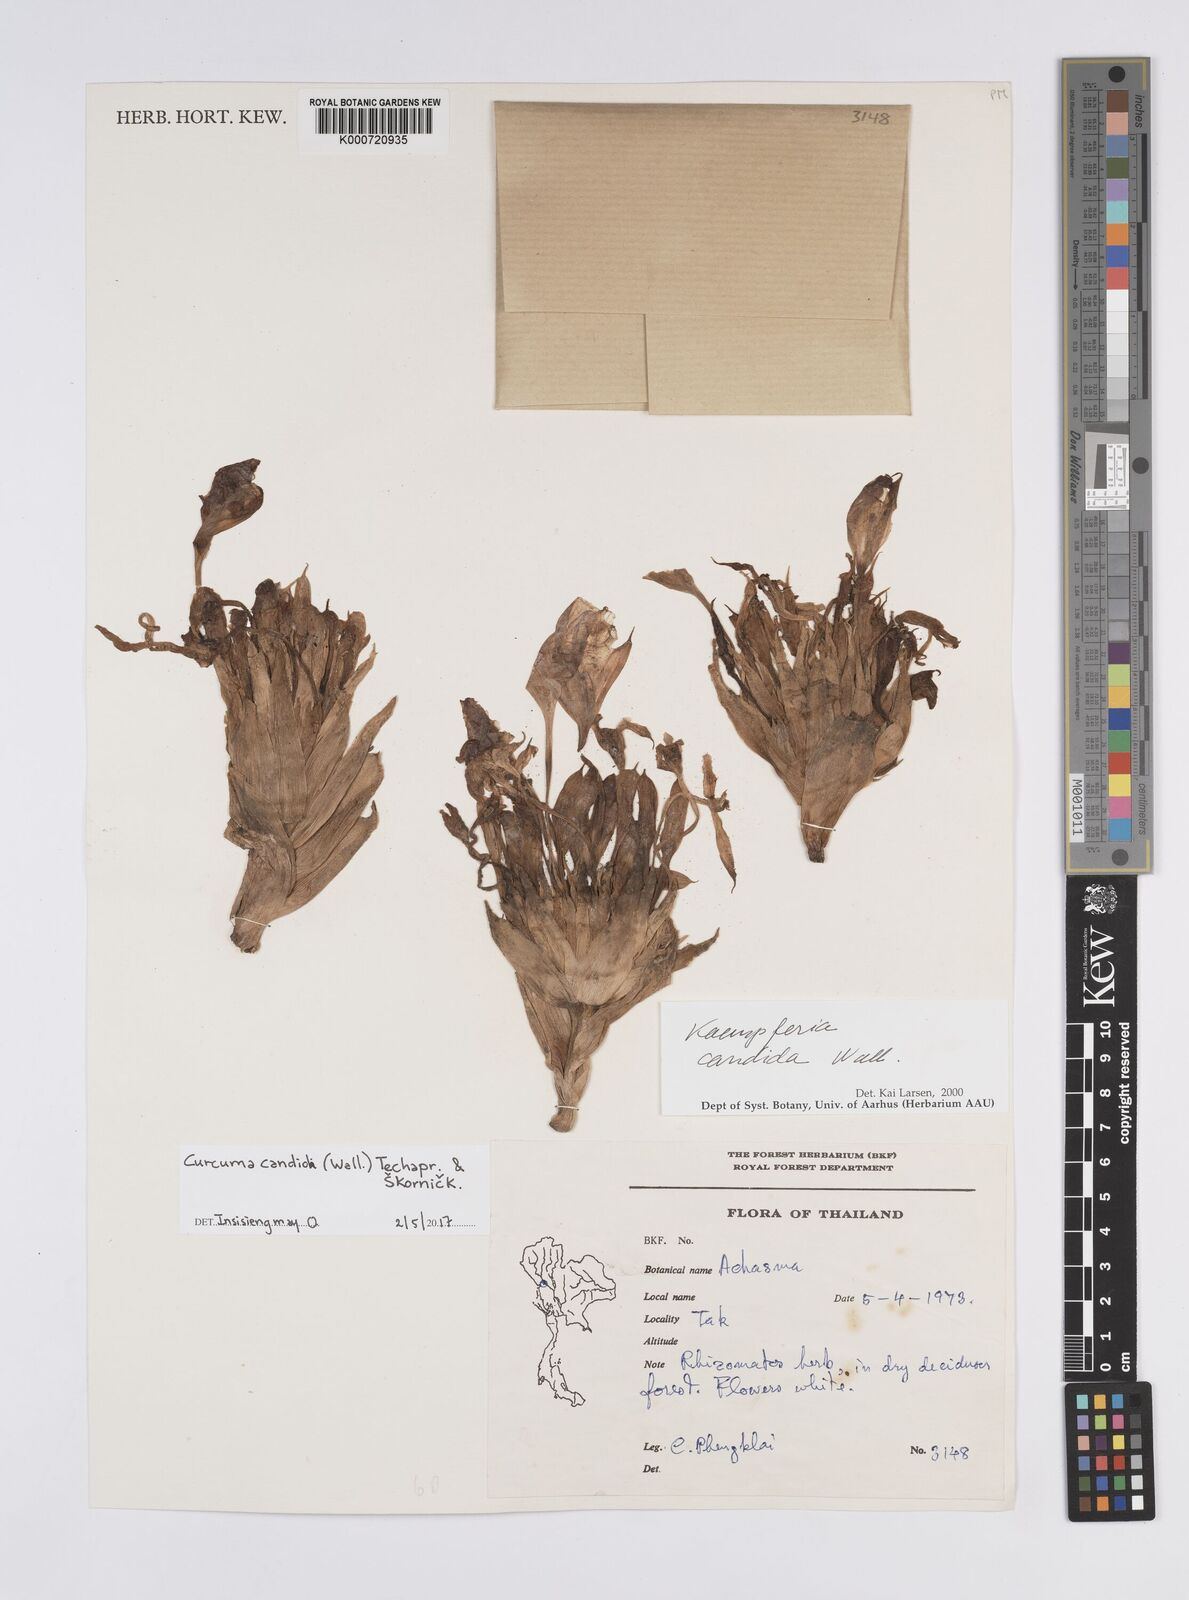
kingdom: Plantae
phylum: Tracheophyta
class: Liliopsida
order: Zingiberales
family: Zingiberaceae
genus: Curcuma
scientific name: Curcuma
